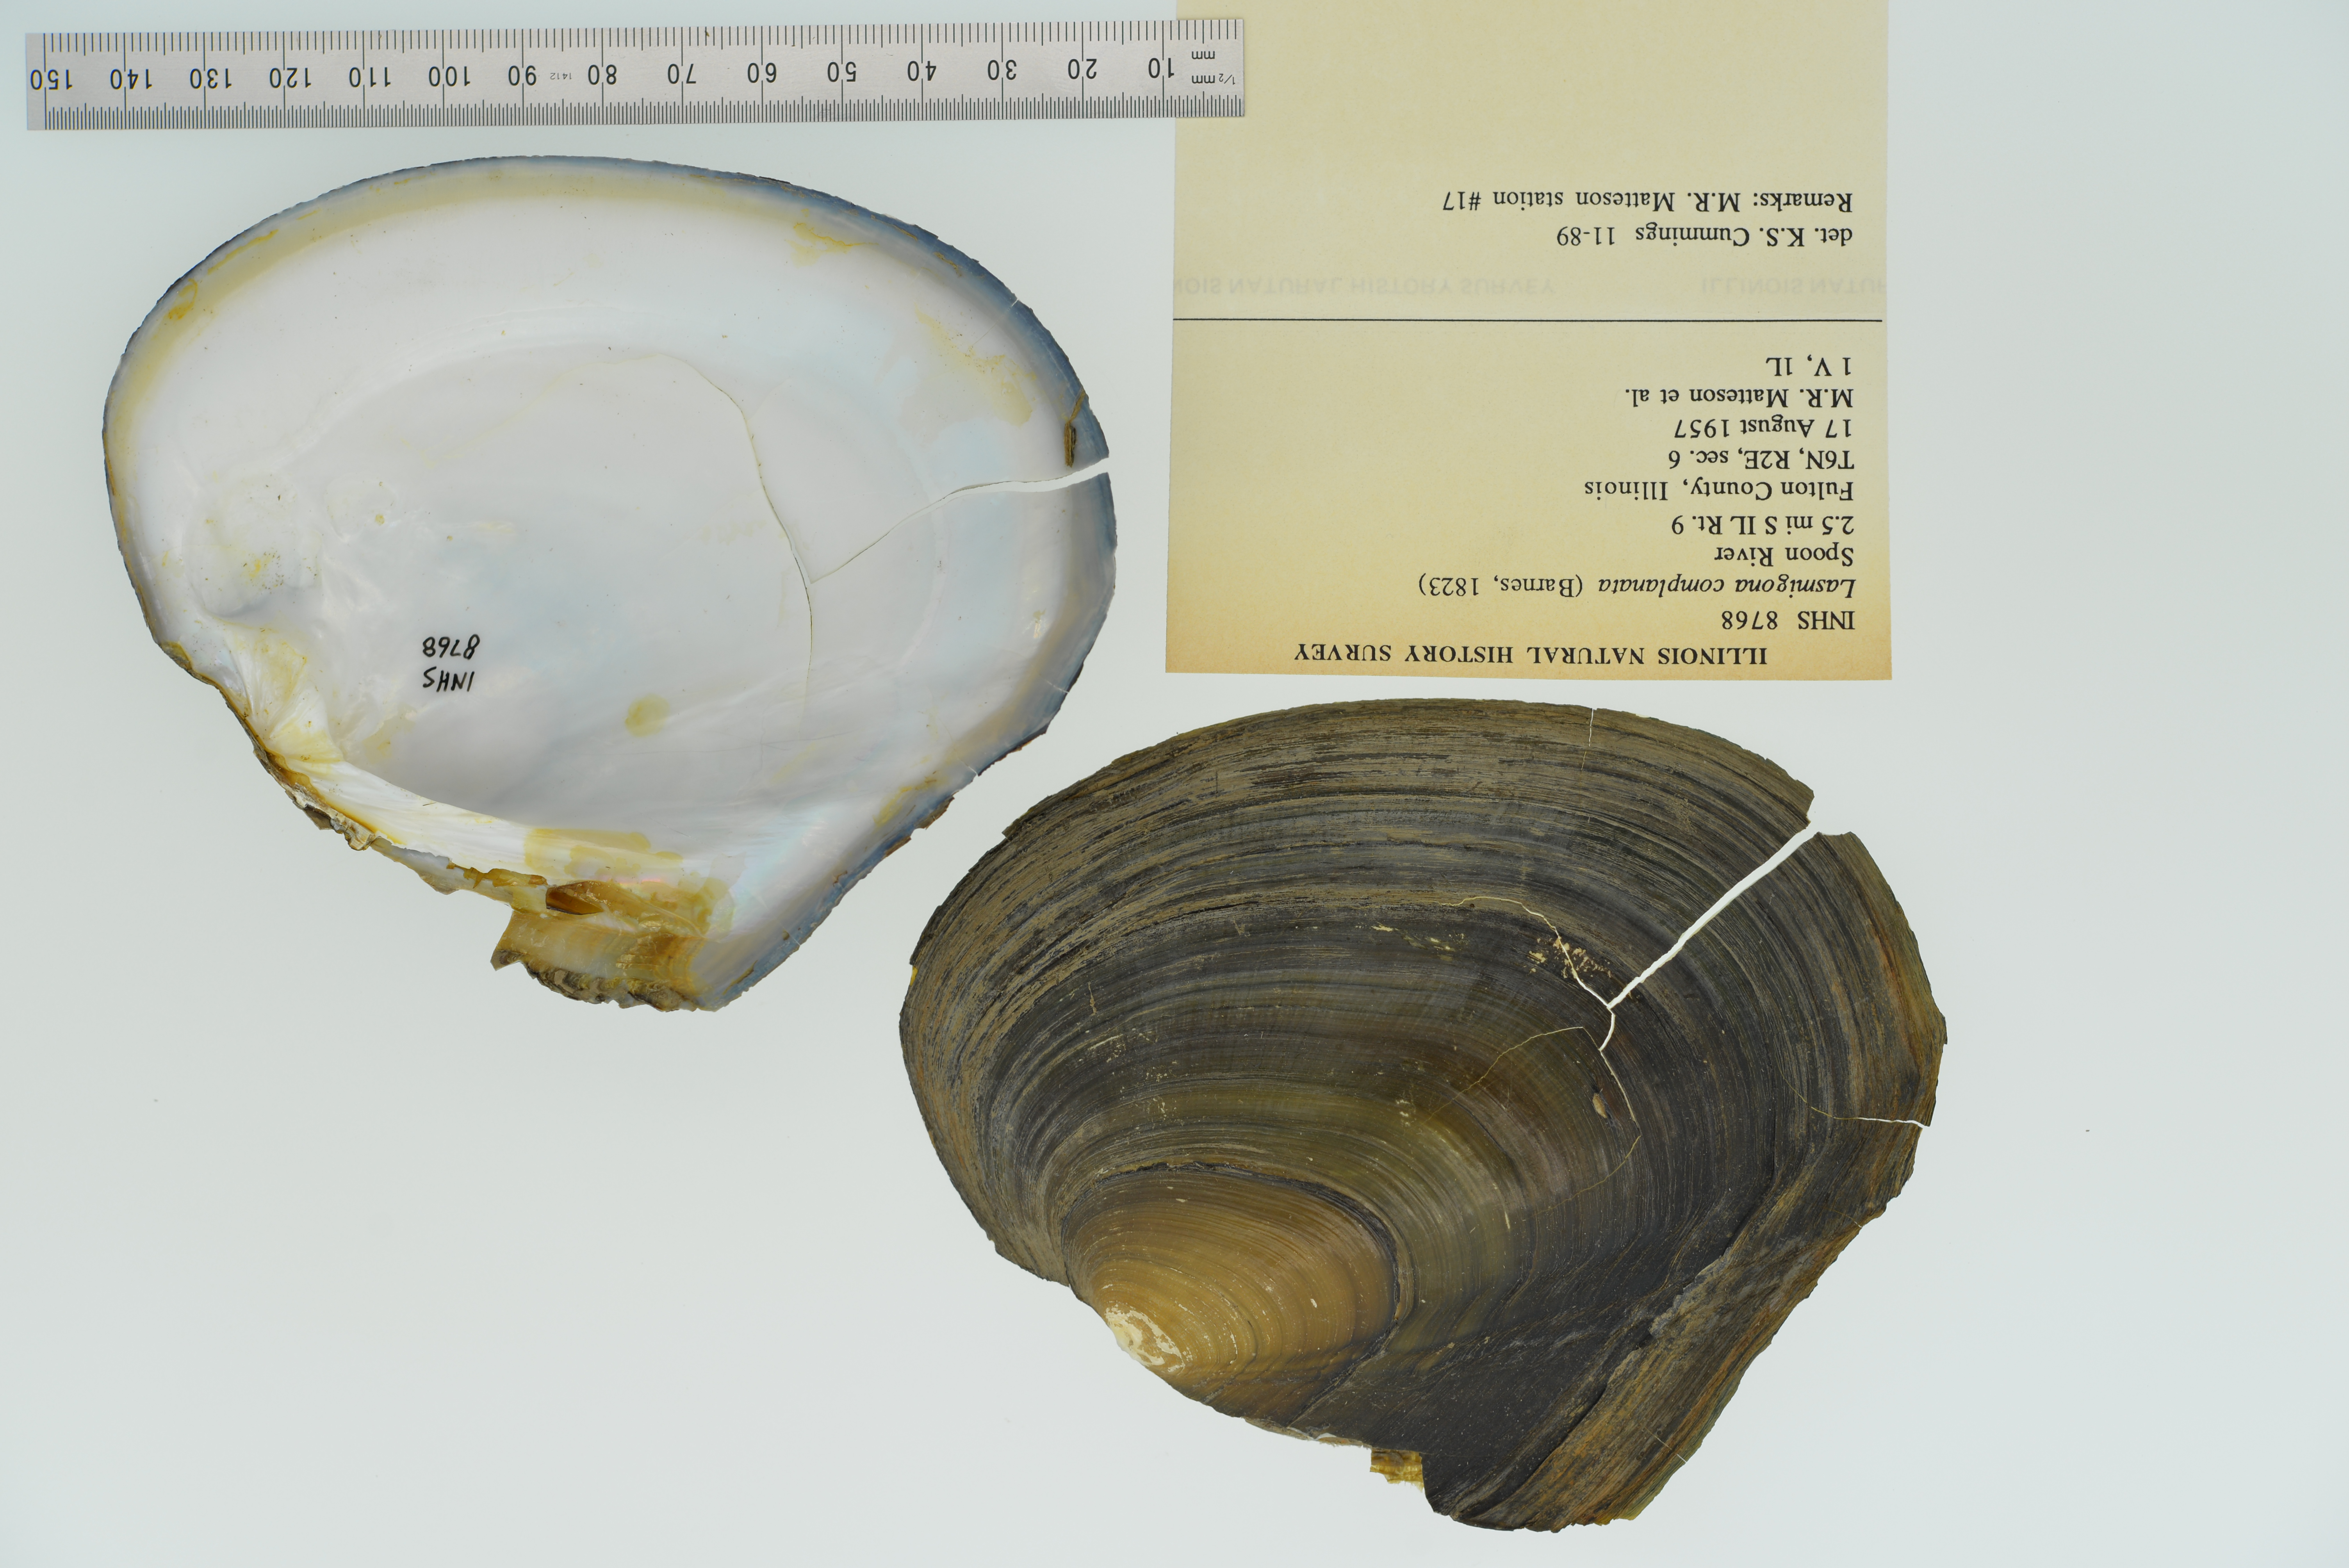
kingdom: Animalia
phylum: Mollusca
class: Bivalvia
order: Unionida
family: Unionidae
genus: Lasmigona
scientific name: Lasmigona complanata
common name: White heelsplitter
